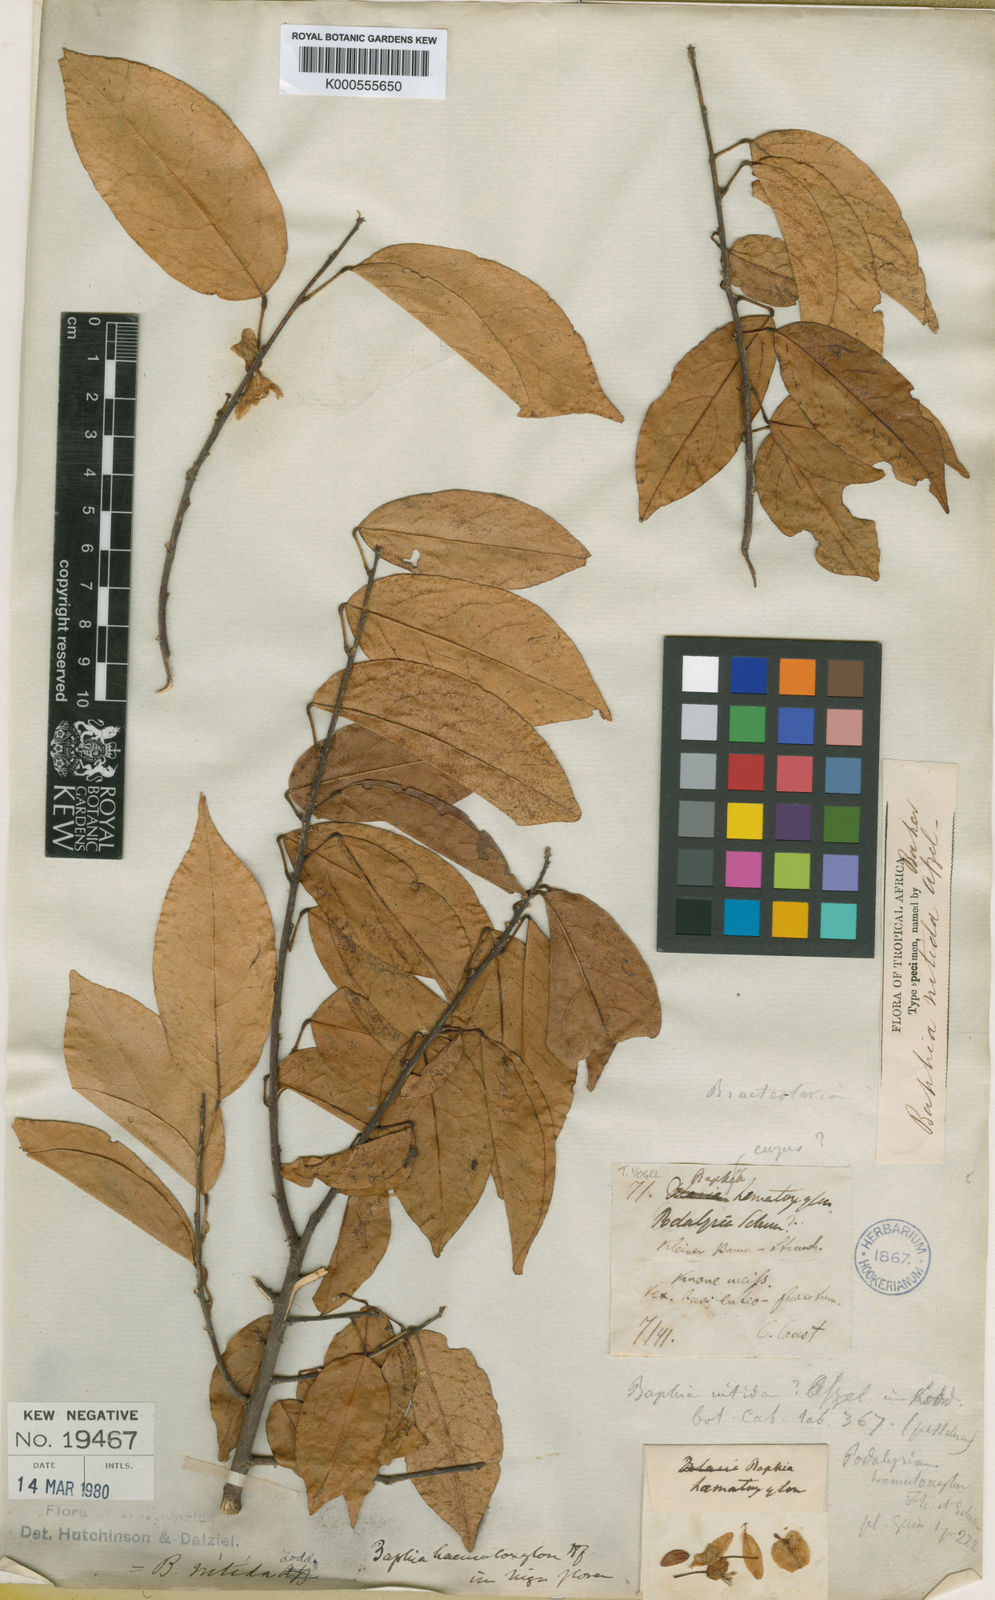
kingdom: Plantae
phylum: Tracheophyta
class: Magnoliopsida
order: Fabales
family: Fabaceae
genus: Baphia
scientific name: Baphia nitida
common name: Camwood
